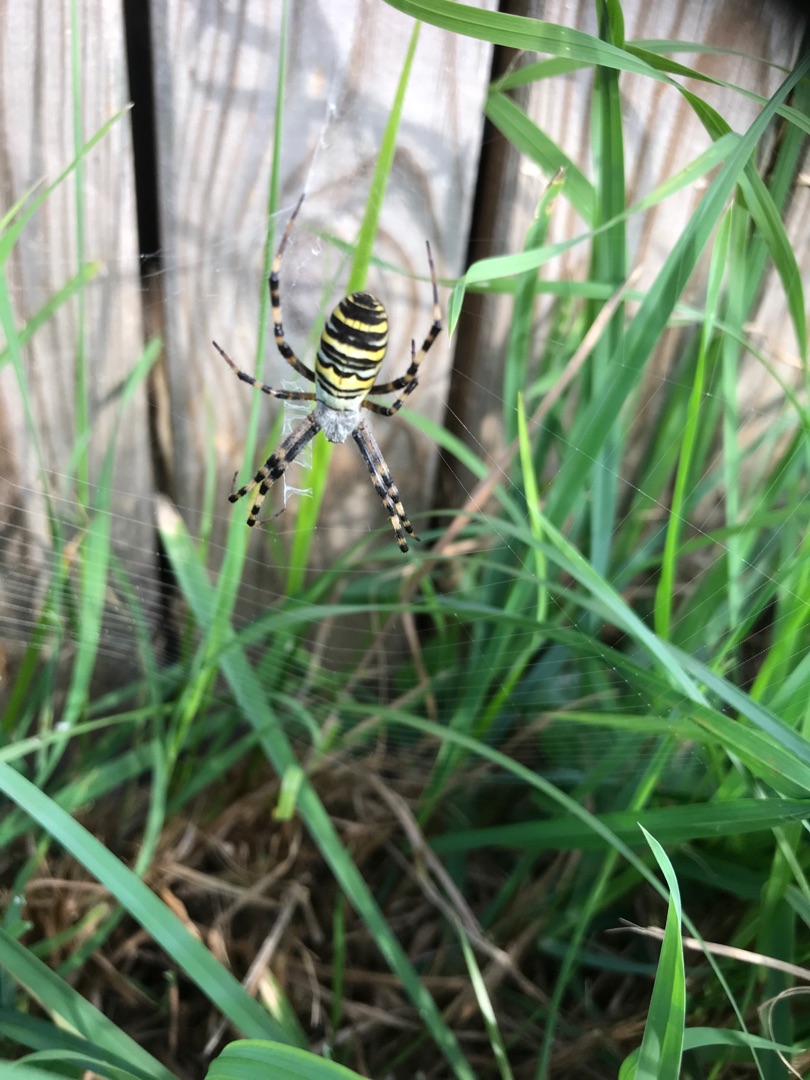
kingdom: Animalia
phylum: Arthropoda
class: Arachnida
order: Araneae
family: Araneidae
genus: Argiope
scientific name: Argiope bruennichi
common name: Hvepseedderkop
